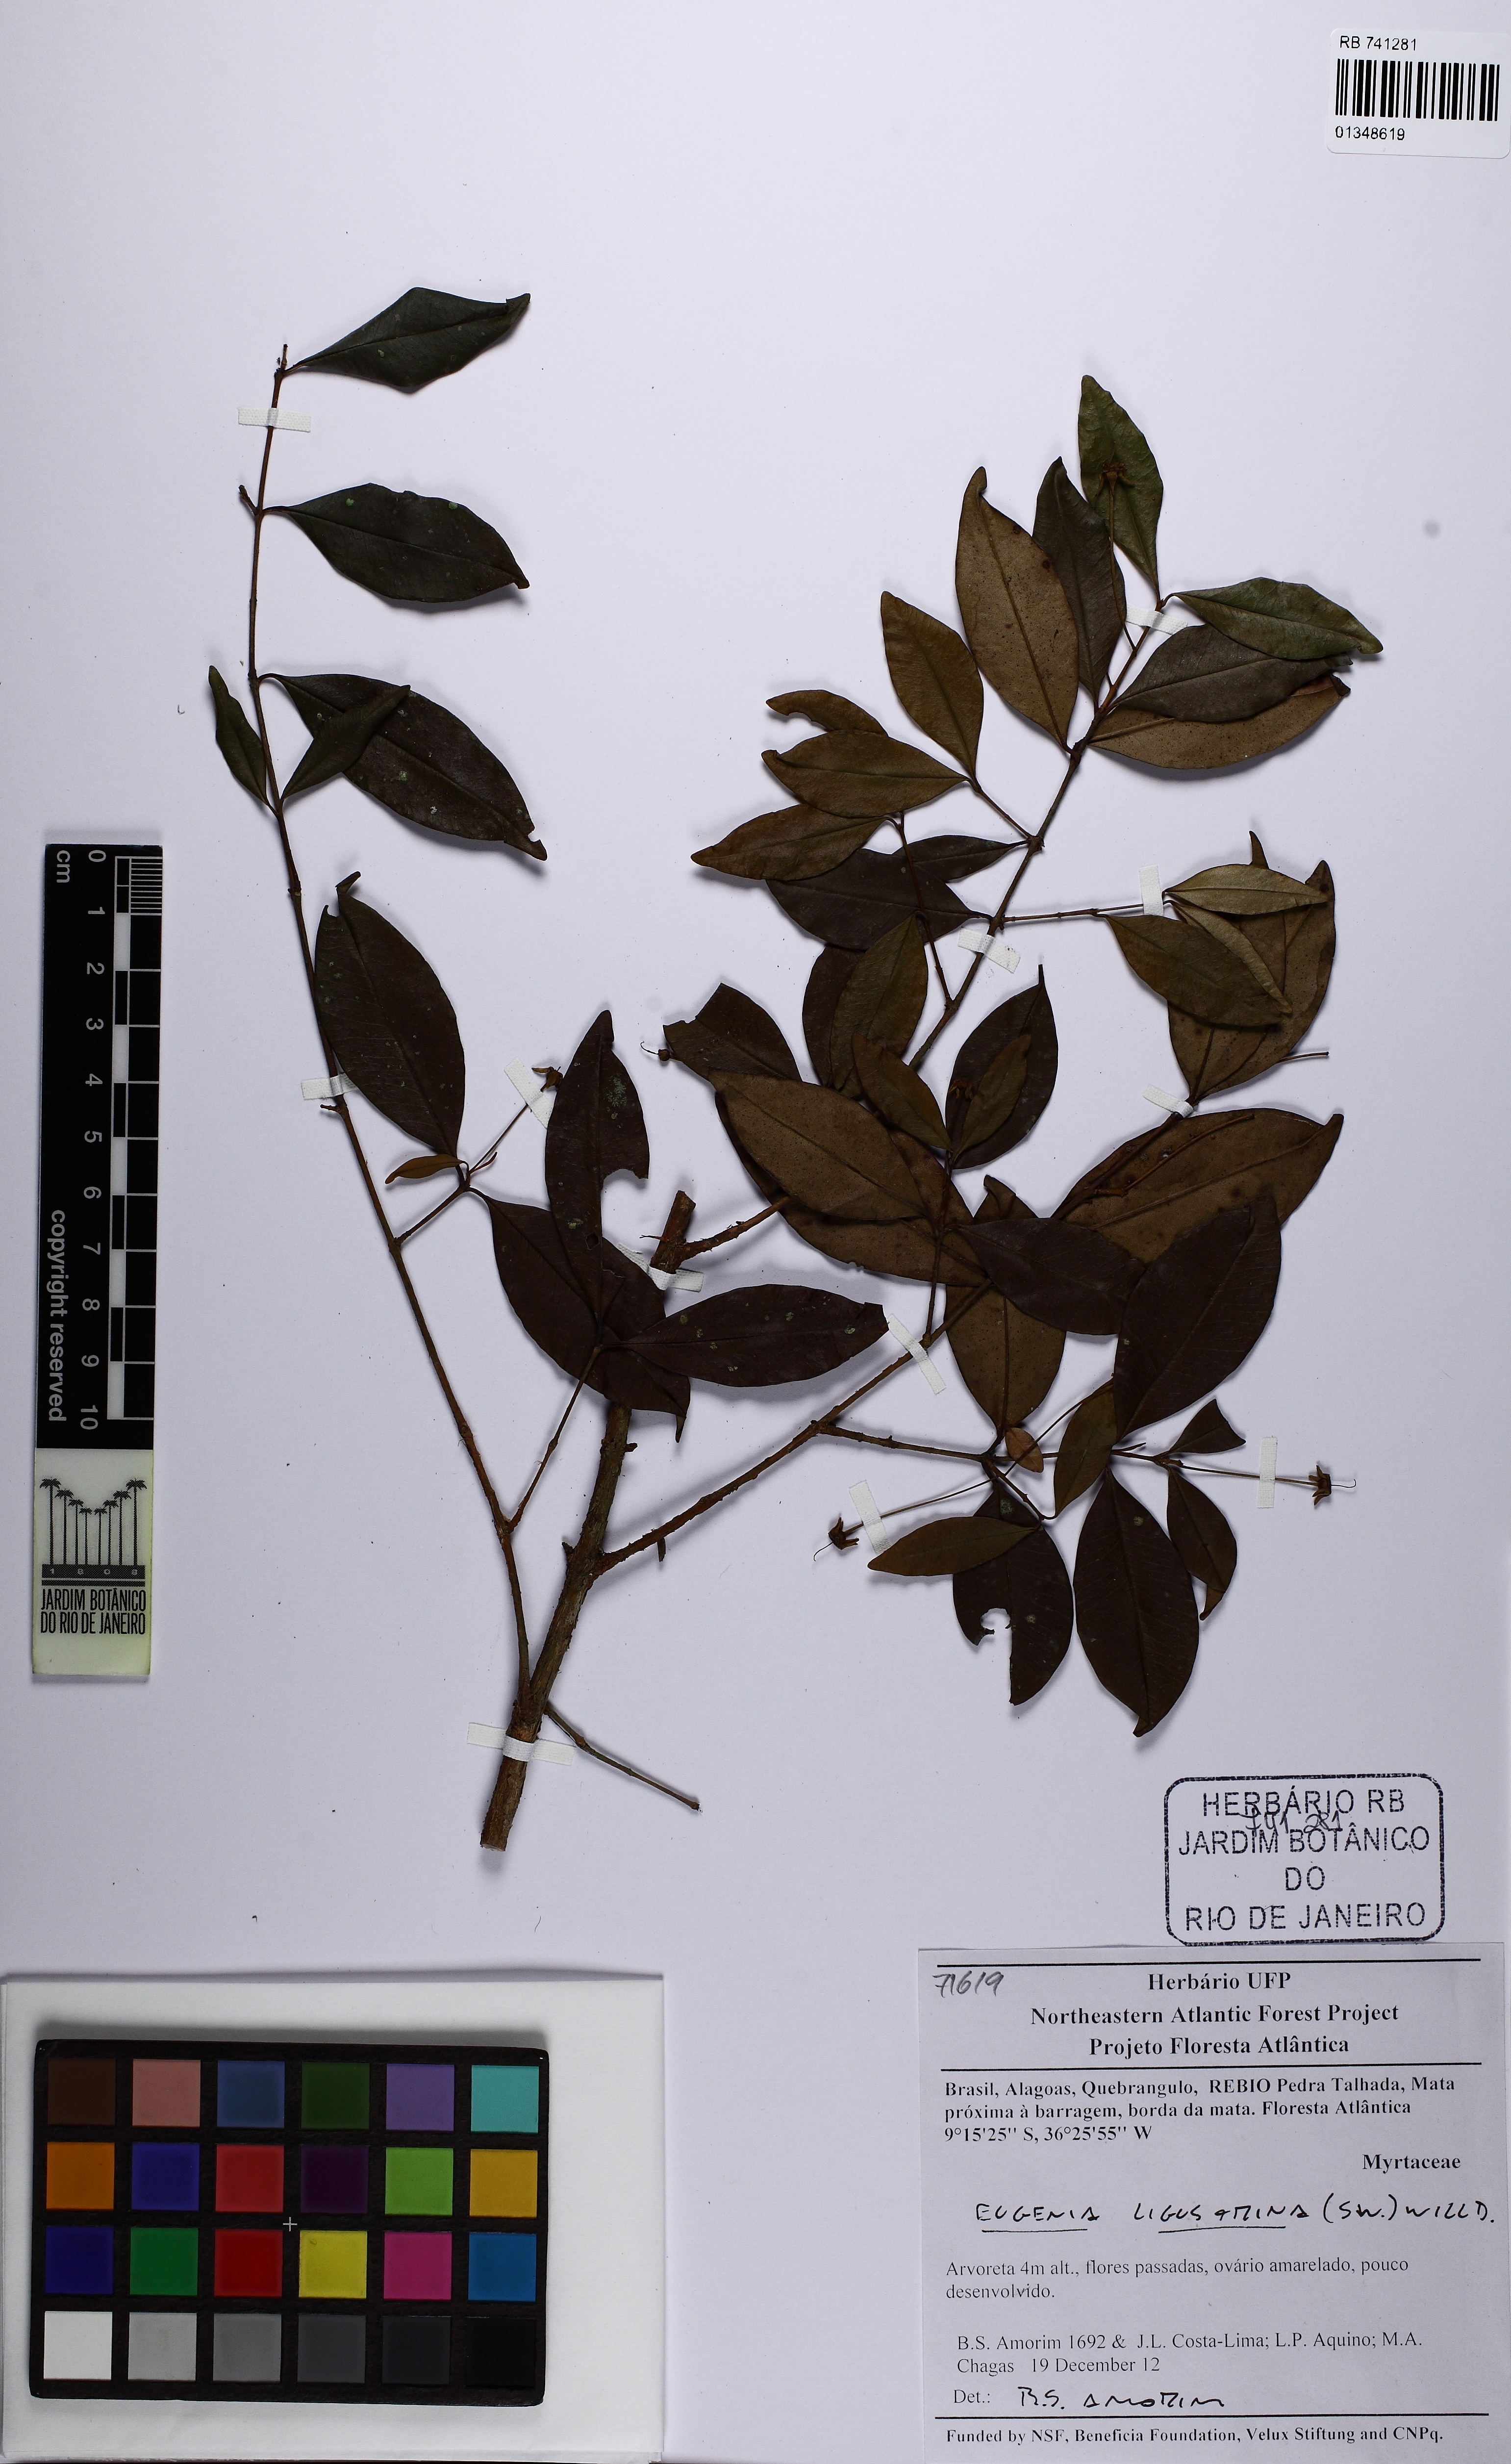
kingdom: Plantae
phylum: Tracheophyta
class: Magnoliopsida
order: Myrtales
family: Myrtaceae
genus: Eugenia
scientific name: Eugenia ligustrina
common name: Privet stopper
